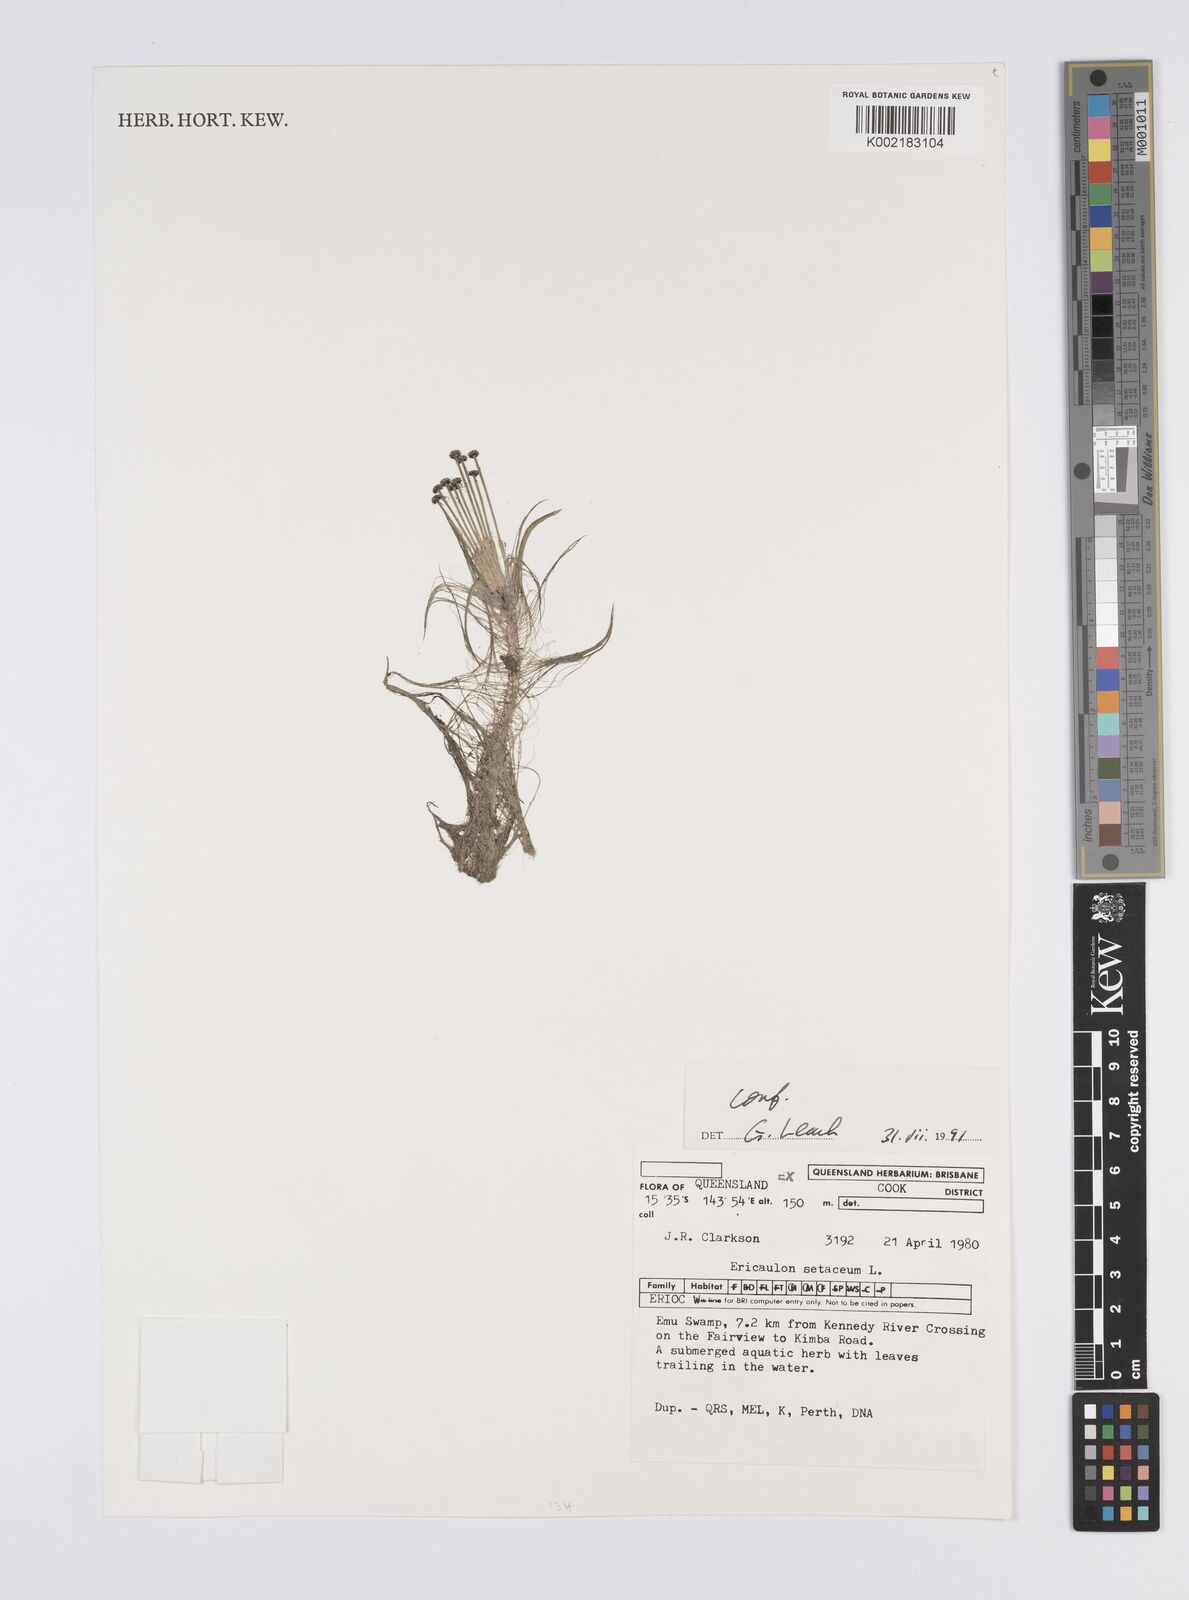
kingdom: Plantae
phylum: Tracheophyta
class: Liliopsida
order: Poales
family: Eriocaulaceae
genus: Eriocaulon
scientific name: Eriocaulon setaceum
